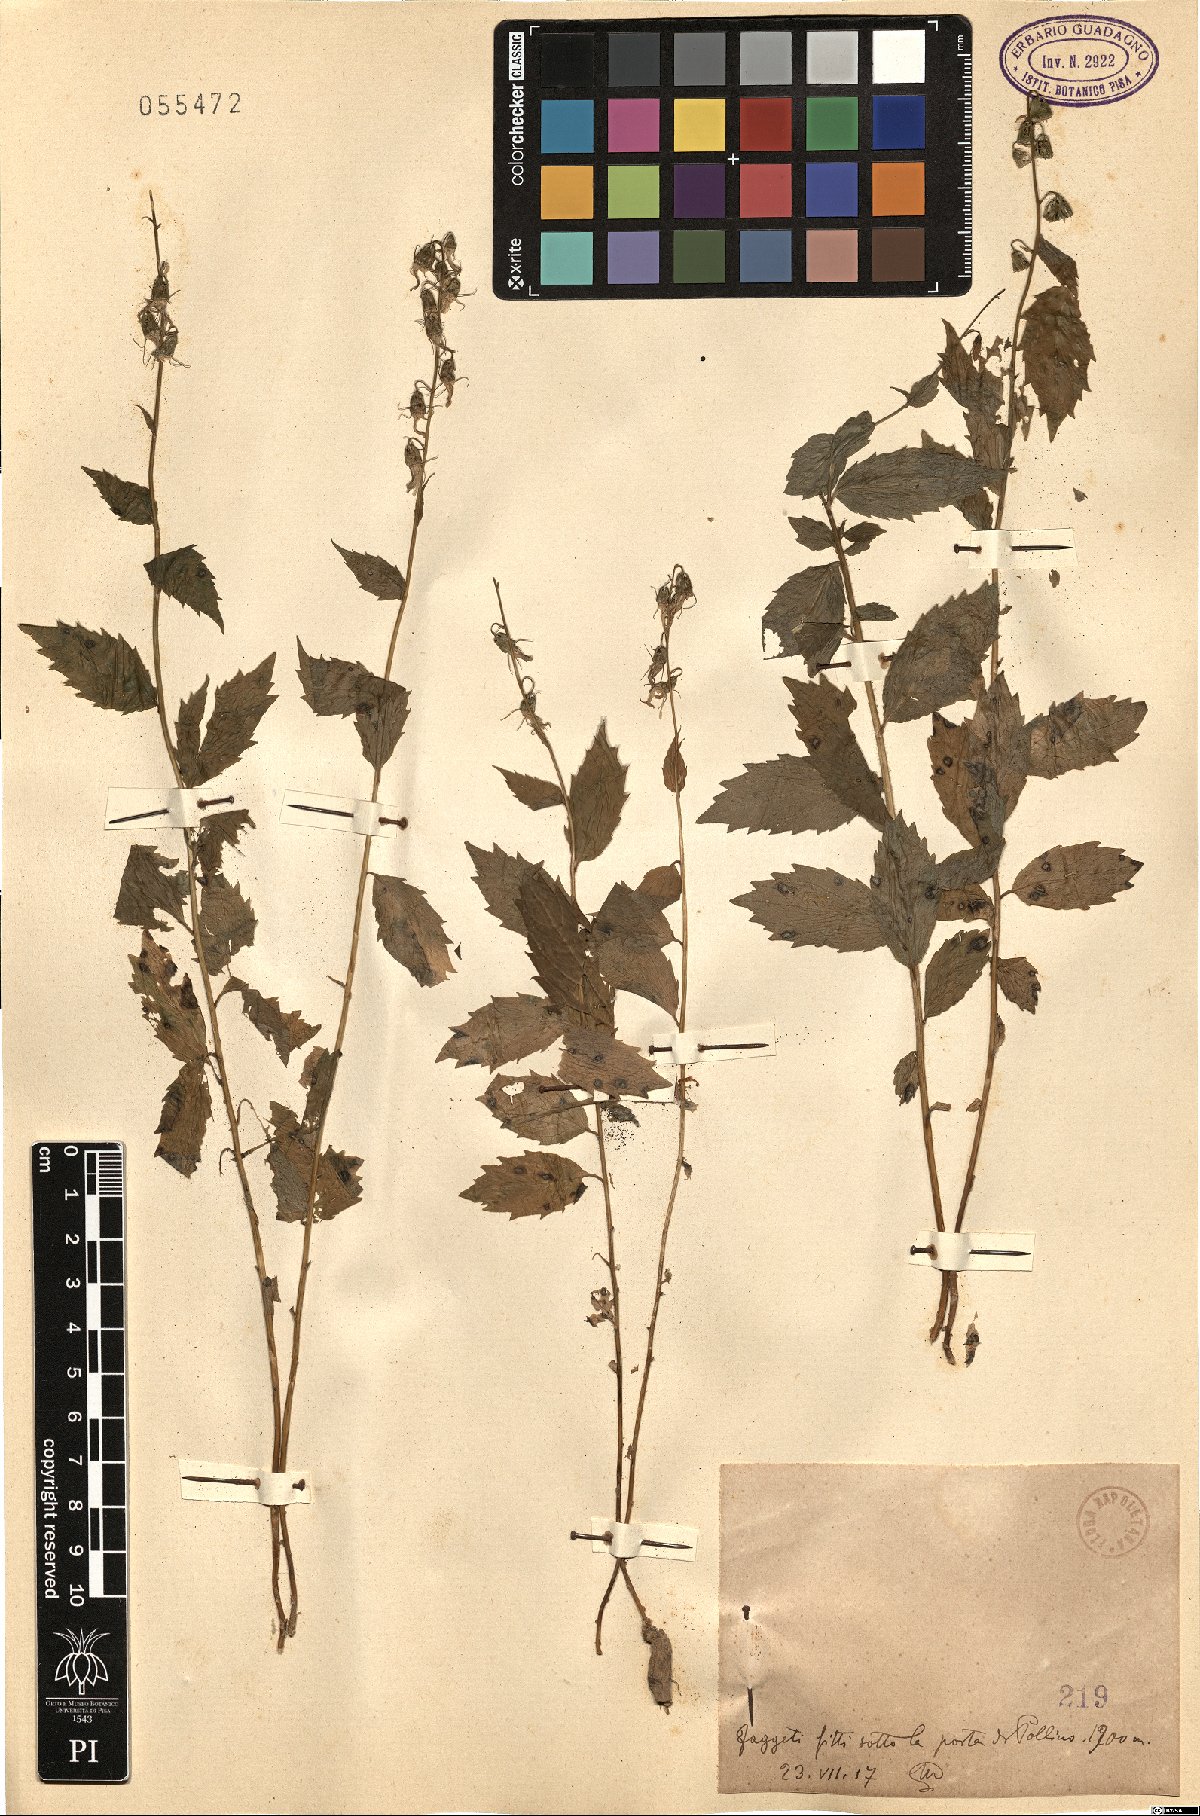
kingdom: Plantae
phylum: Tracheophyta
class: Magnoliopsida
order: Asterales
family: Campanulaceae
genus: Campanula
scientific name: Campanula
